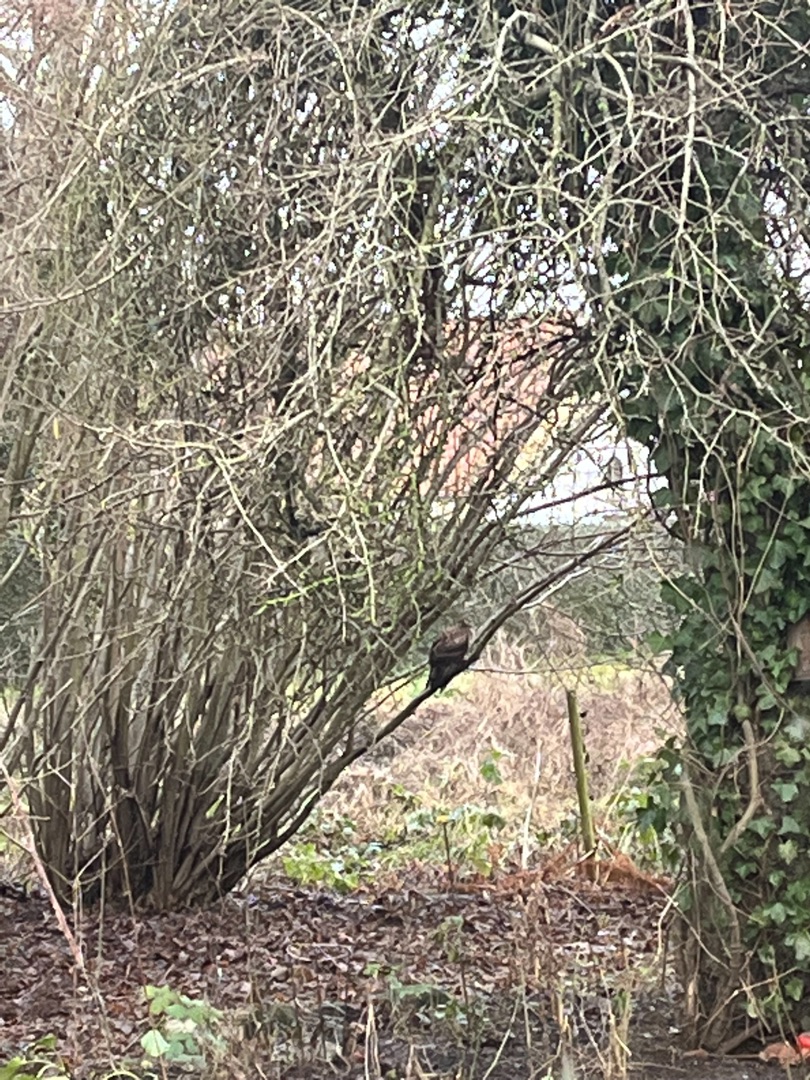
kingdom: Animalia
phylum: Chordata
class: Aves
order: Accipitriformes
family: Accipitridae
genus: Buteo
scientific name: Buteo buteo
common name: Musvåge
